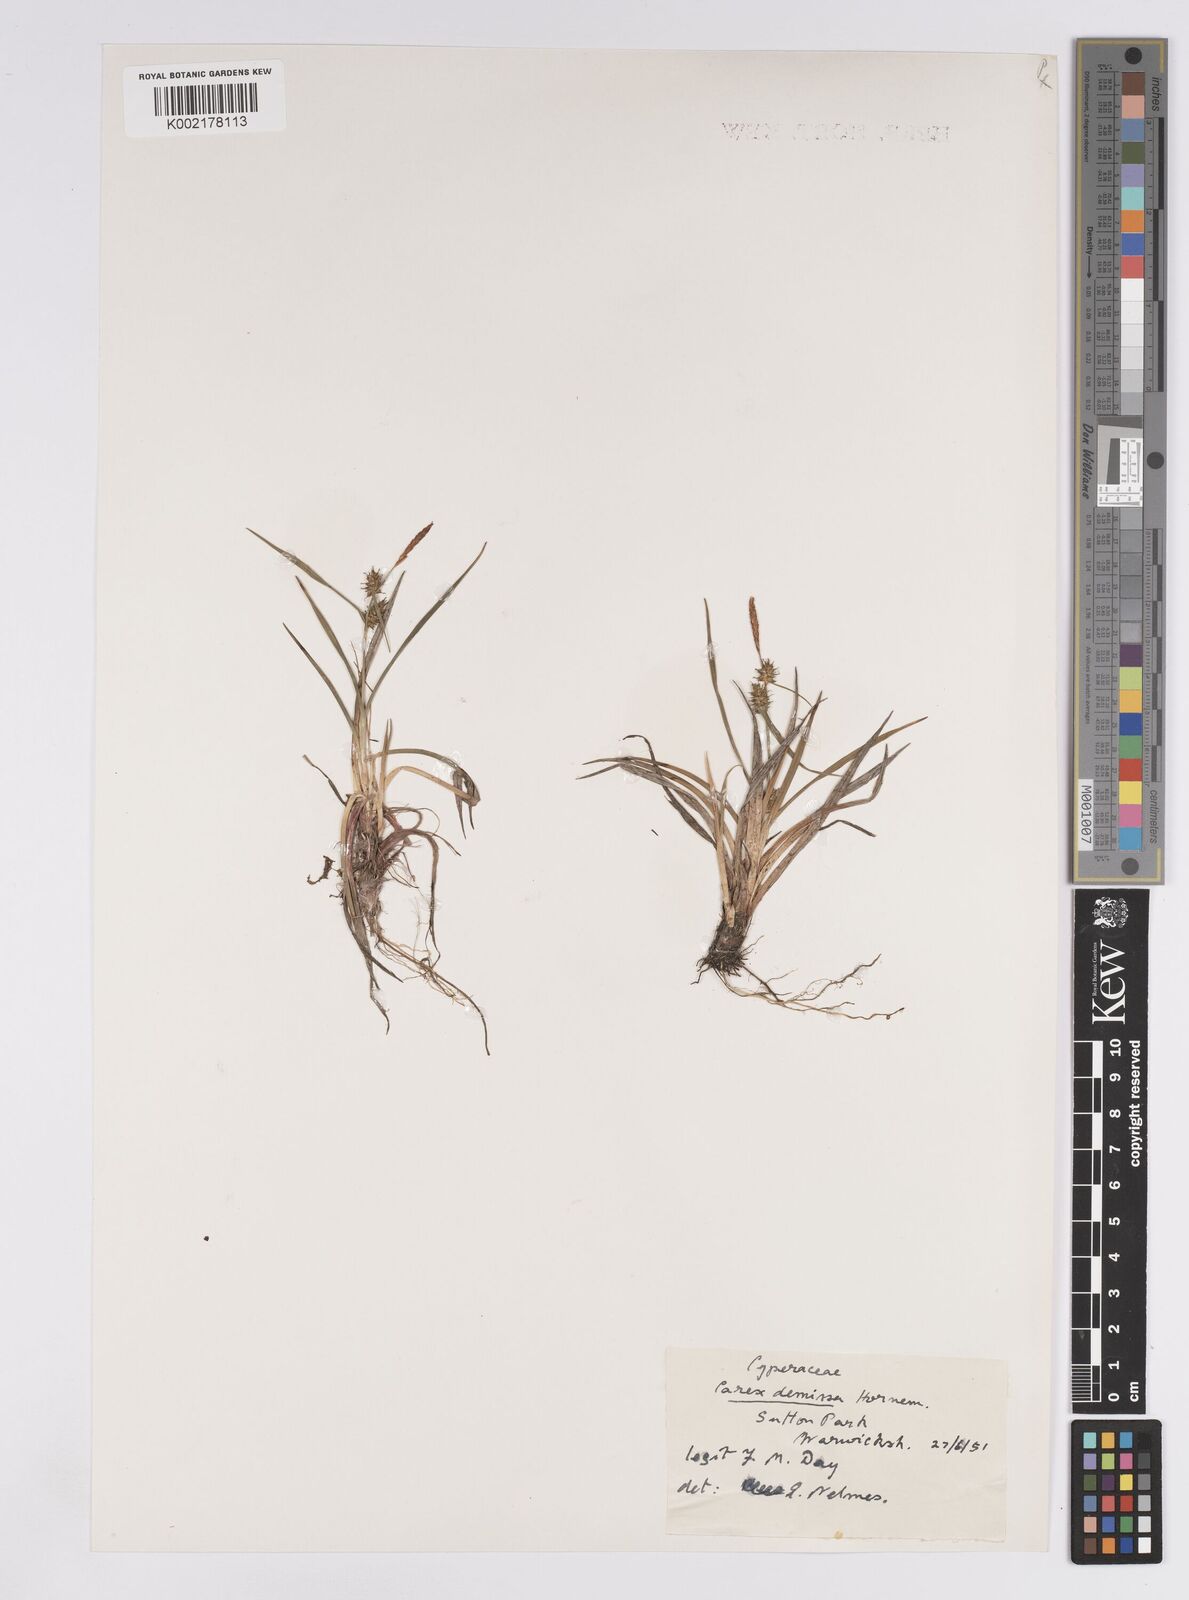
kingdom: Plantae
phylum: Tracheophyta
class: Liliopsida
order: Poales
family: Cyperaceae
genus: Carex
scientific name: Carex demissa
